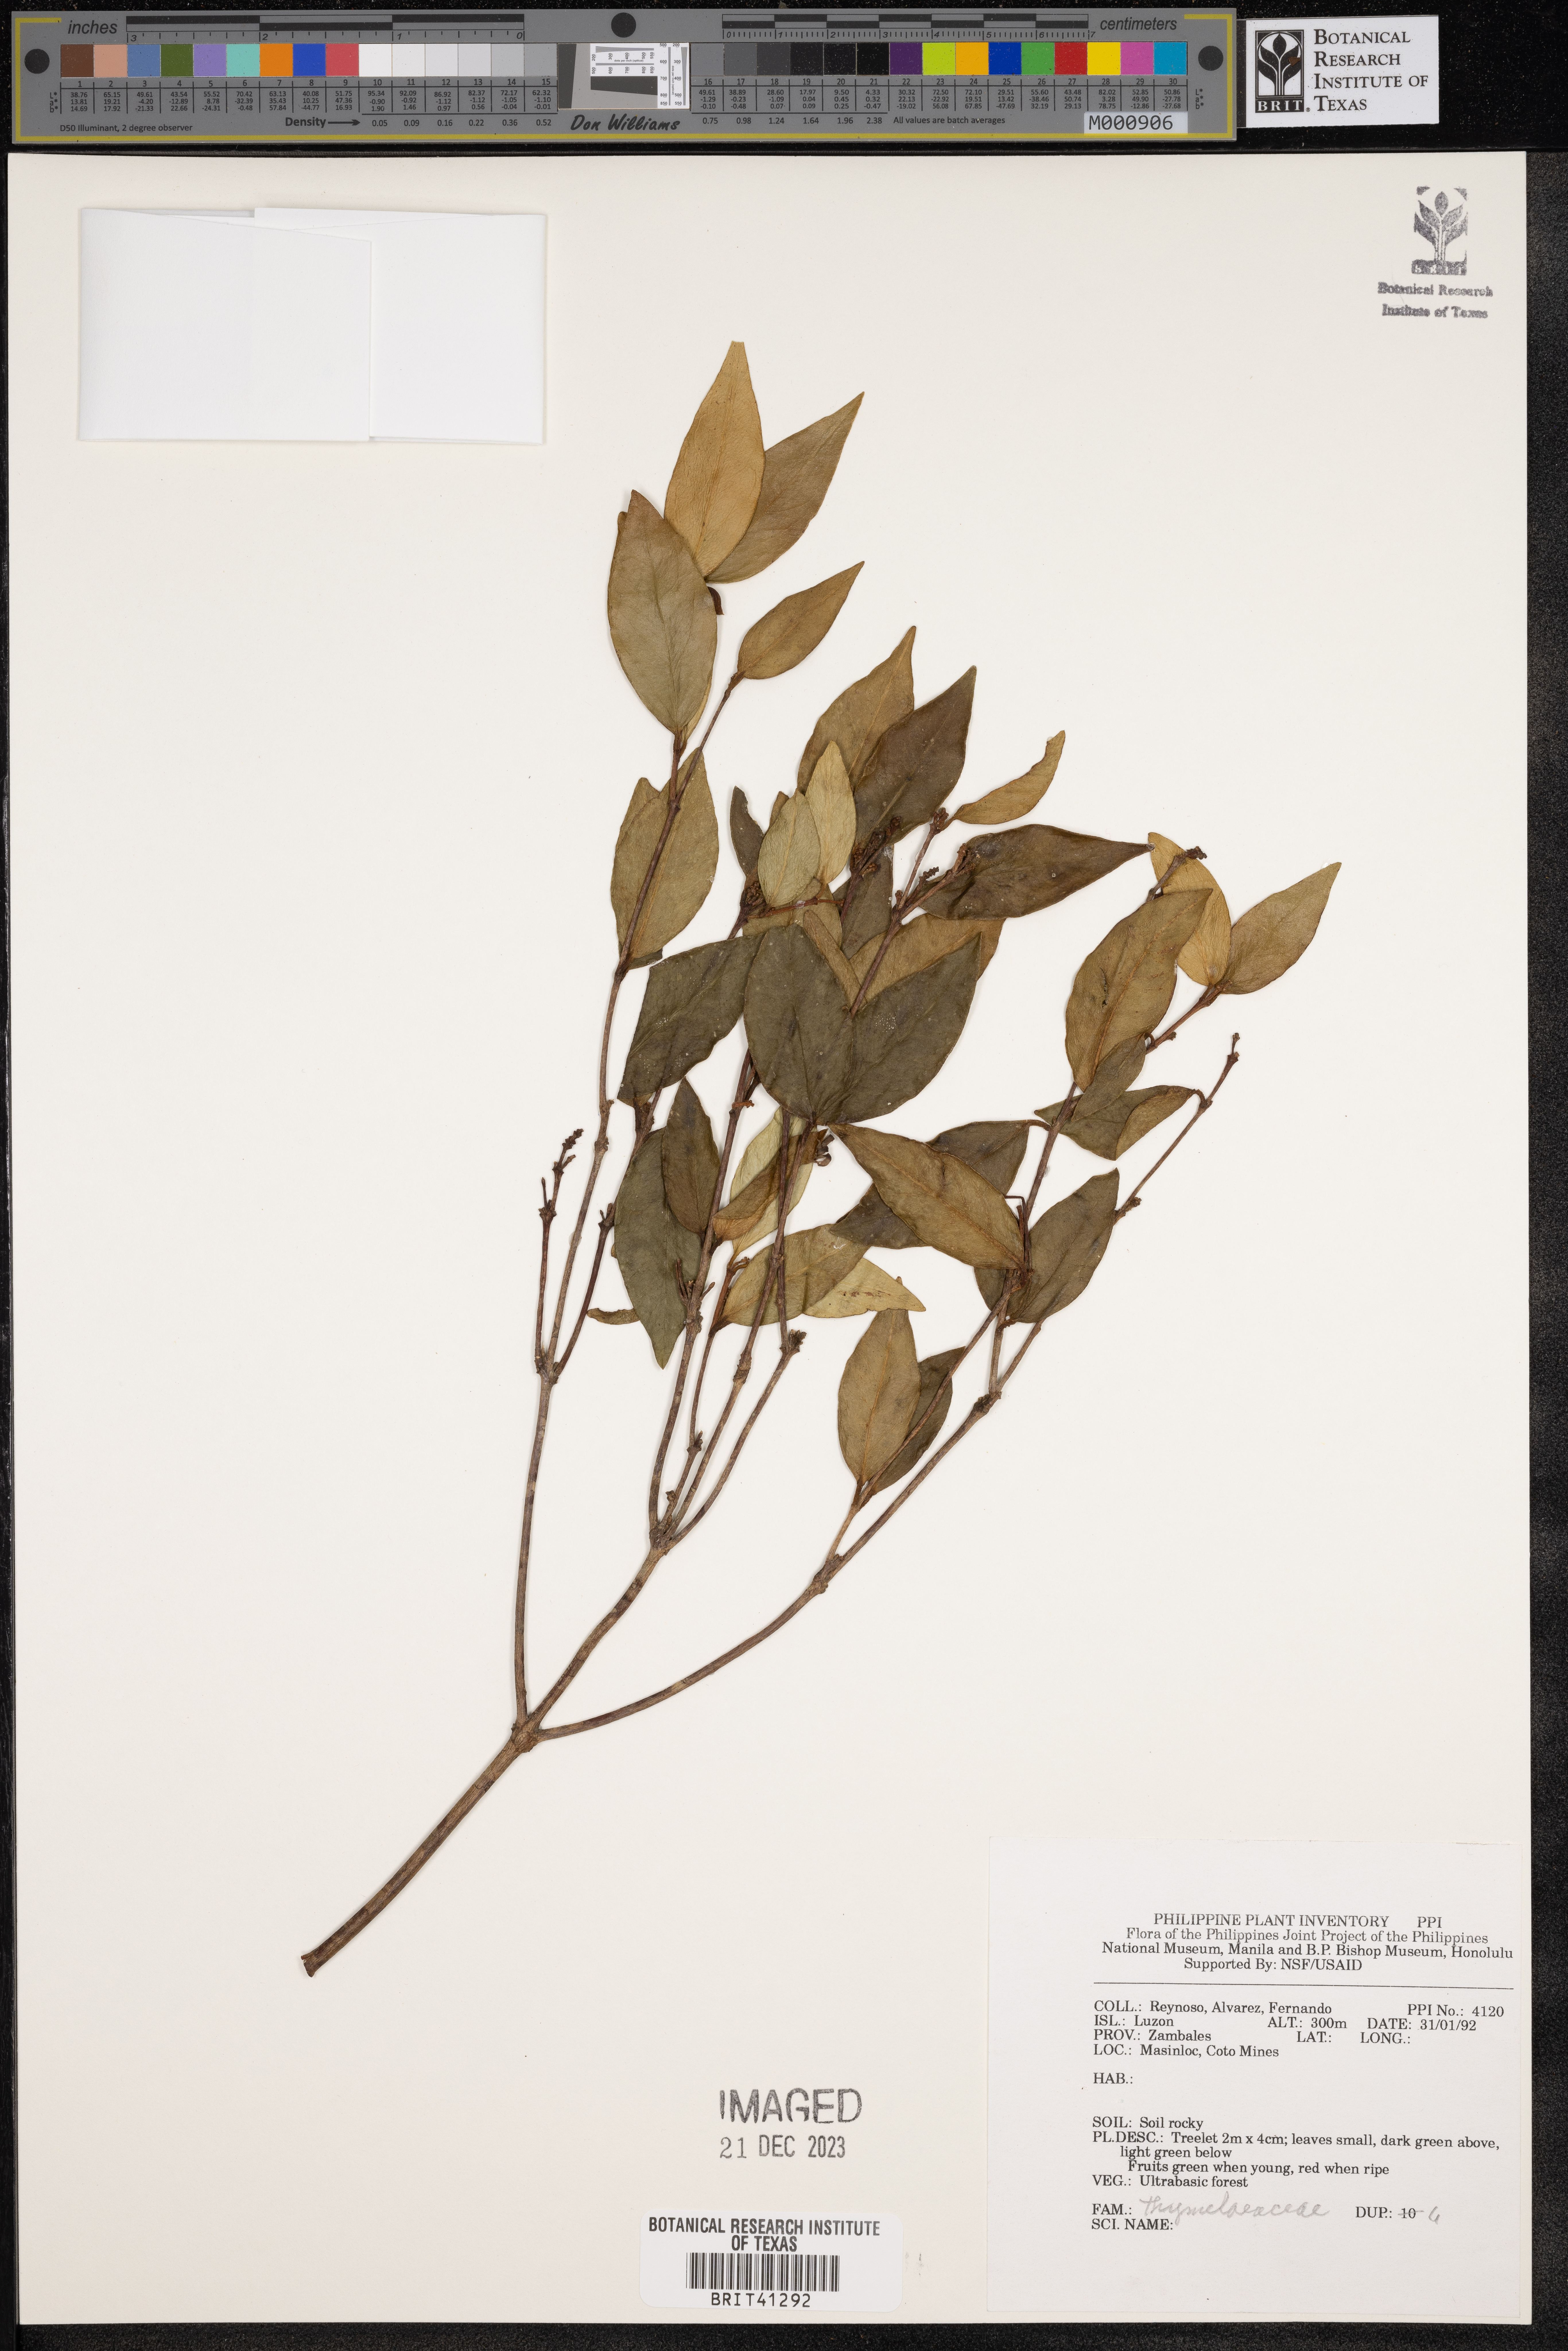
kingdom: Plantae
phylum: Tracheophyta
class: Magnoliopsida
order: Malvales
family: Thymelaeaceae
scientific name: Thymelaeaceae
